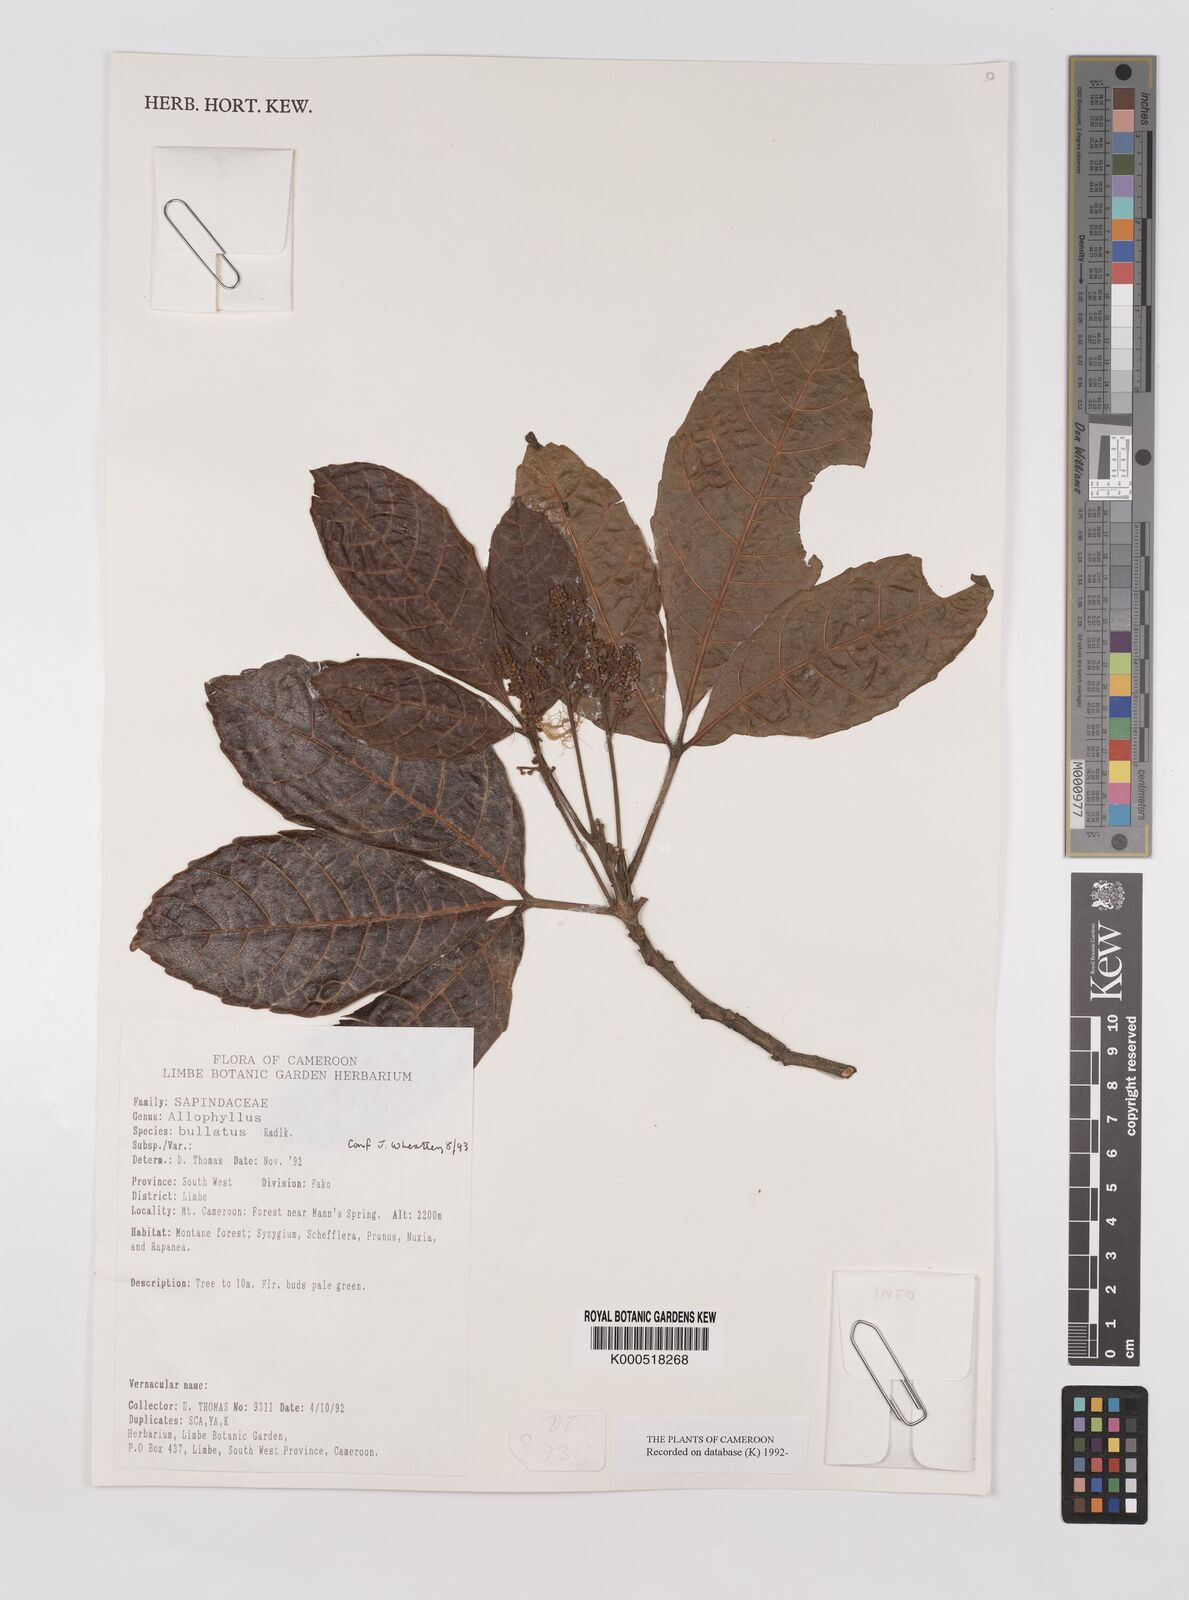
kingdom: Plantae
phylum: Tracheophyta
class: Magnoliopsida
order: Sapindales
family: Sapindaceae
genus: Allophylus
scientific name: Allophylus bullatus
